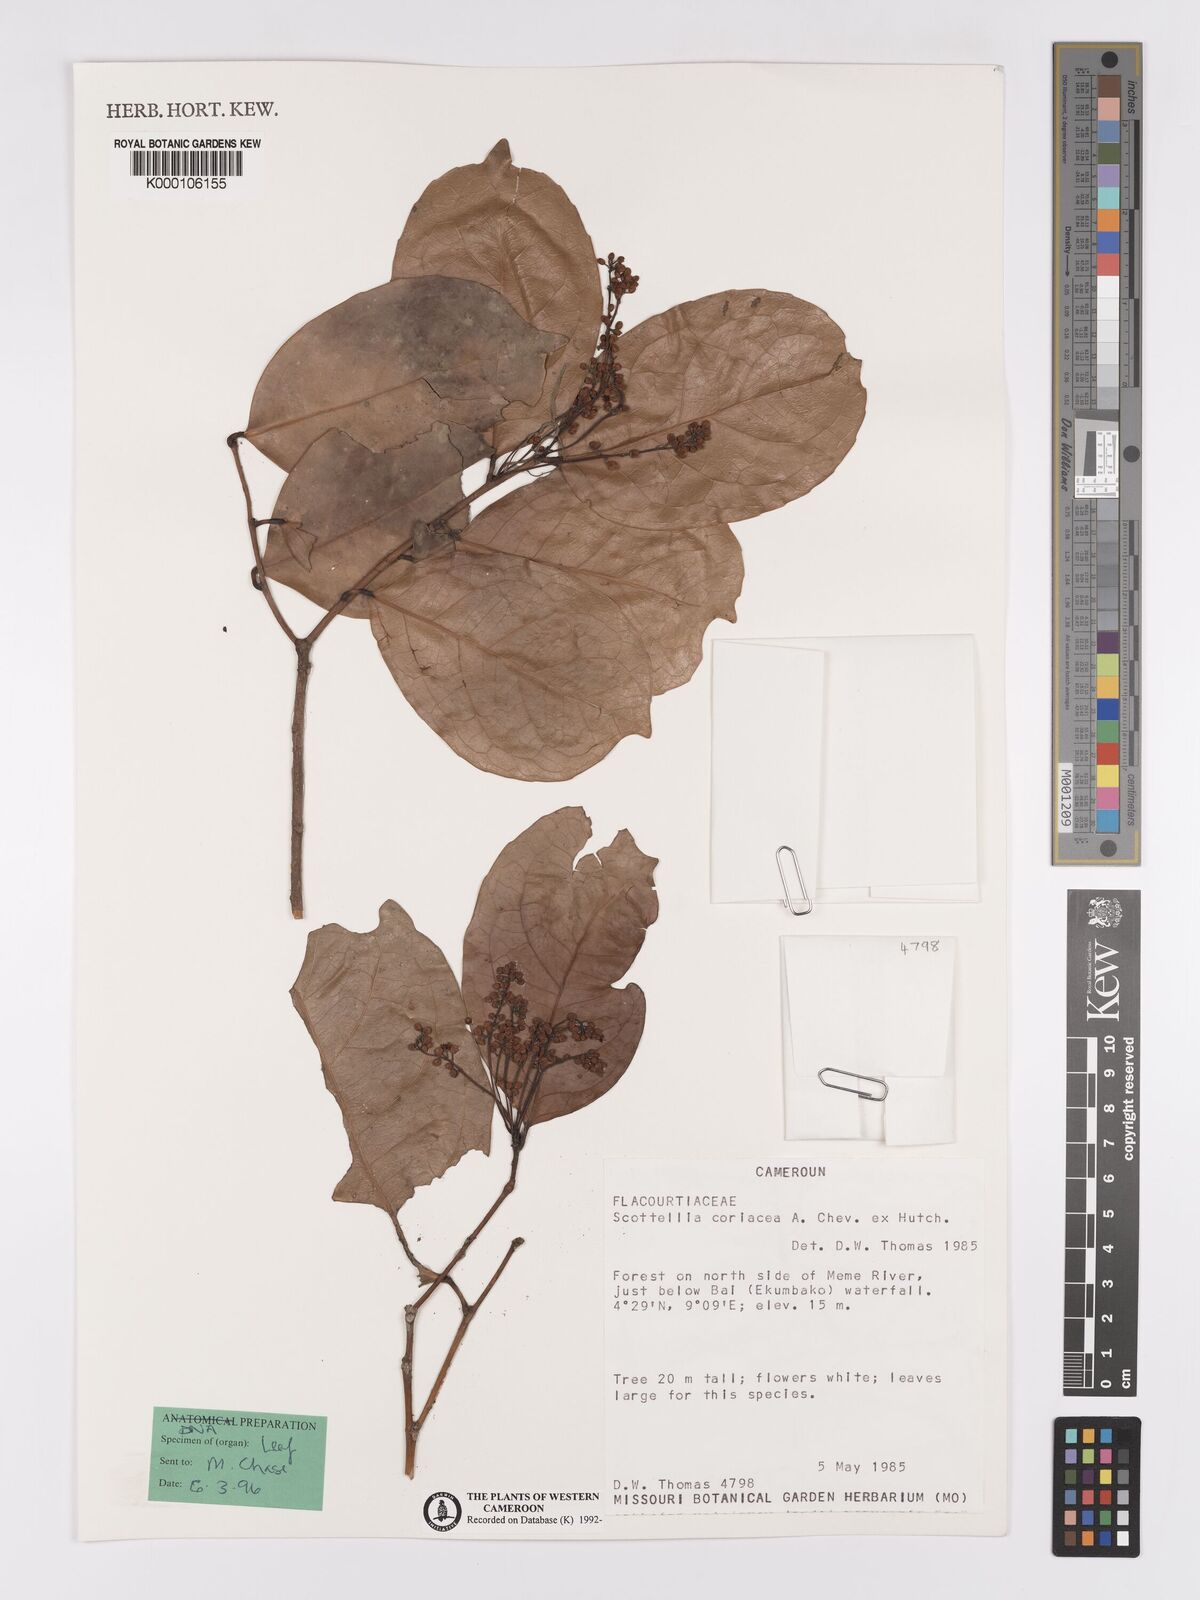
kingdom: Plantae
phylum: Tracheophyta
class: Magnoliopsida
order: Malpighiales
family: Achariaceae
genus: Scottellia
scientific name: Scottellia klaineana
